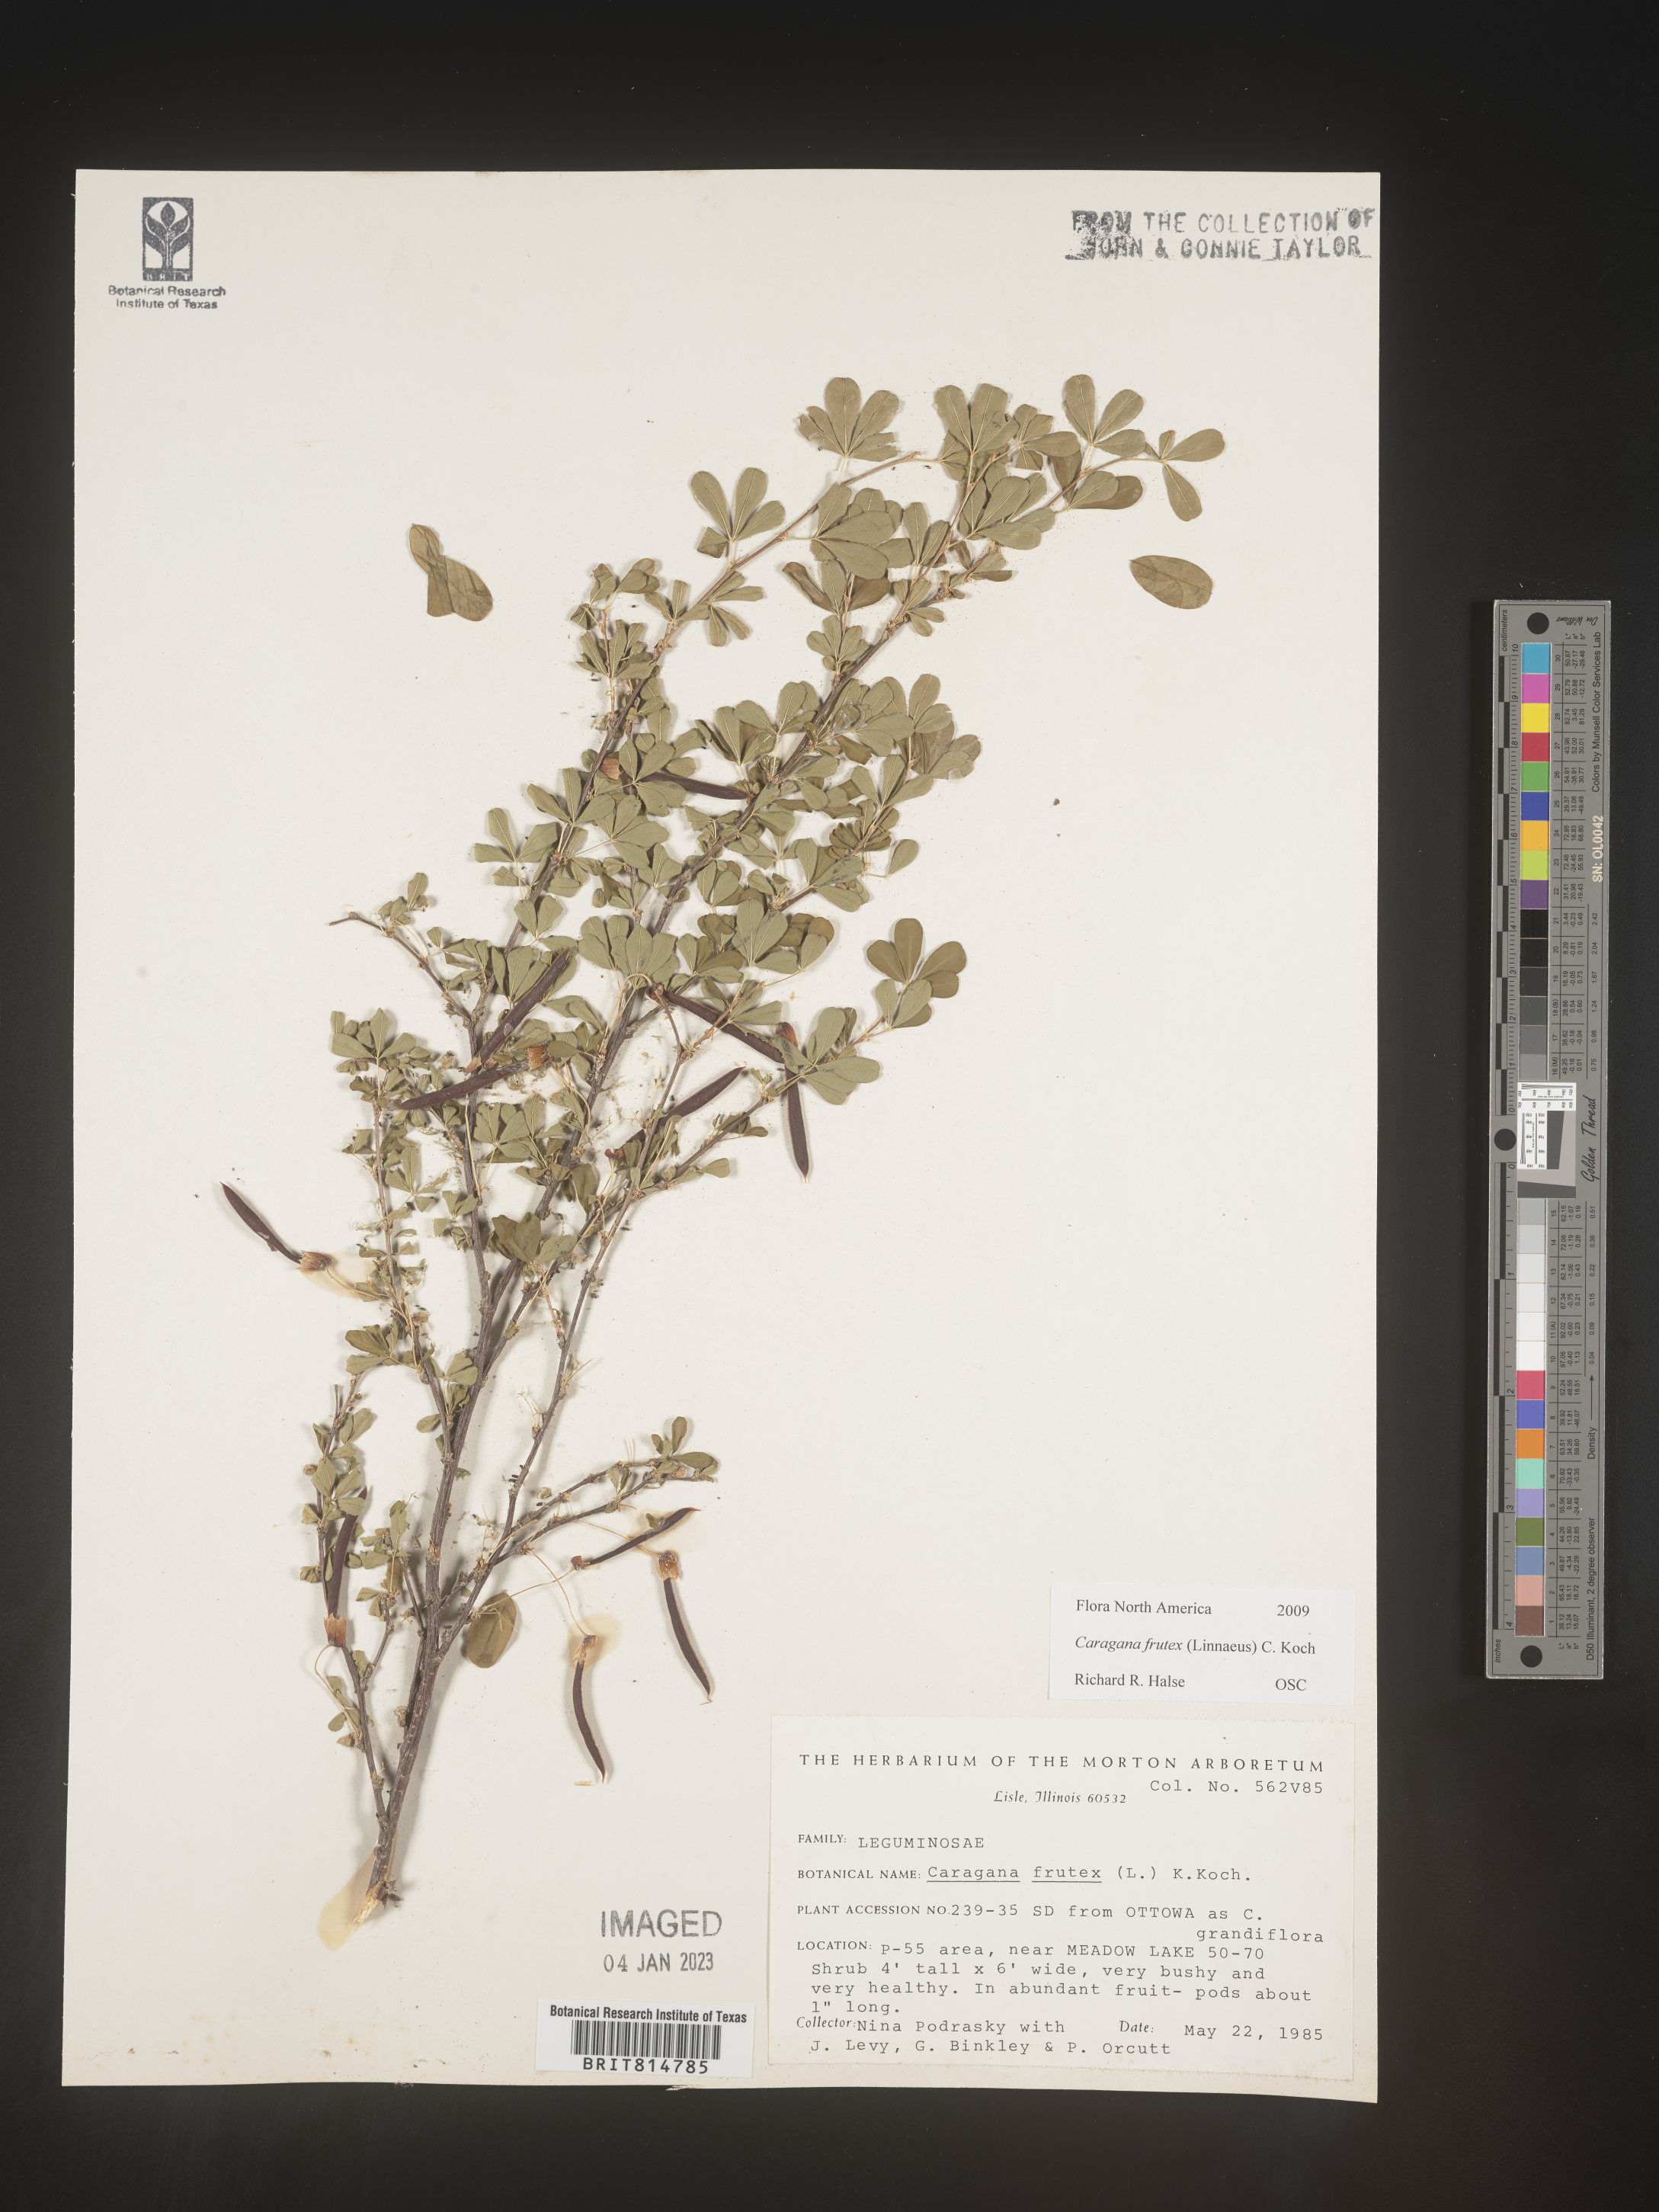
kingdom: Plantae
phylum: Tracheophyta
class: Magnoliopsida
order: Fabales
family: Fabaceae
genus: Caragana
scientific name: Caragana
